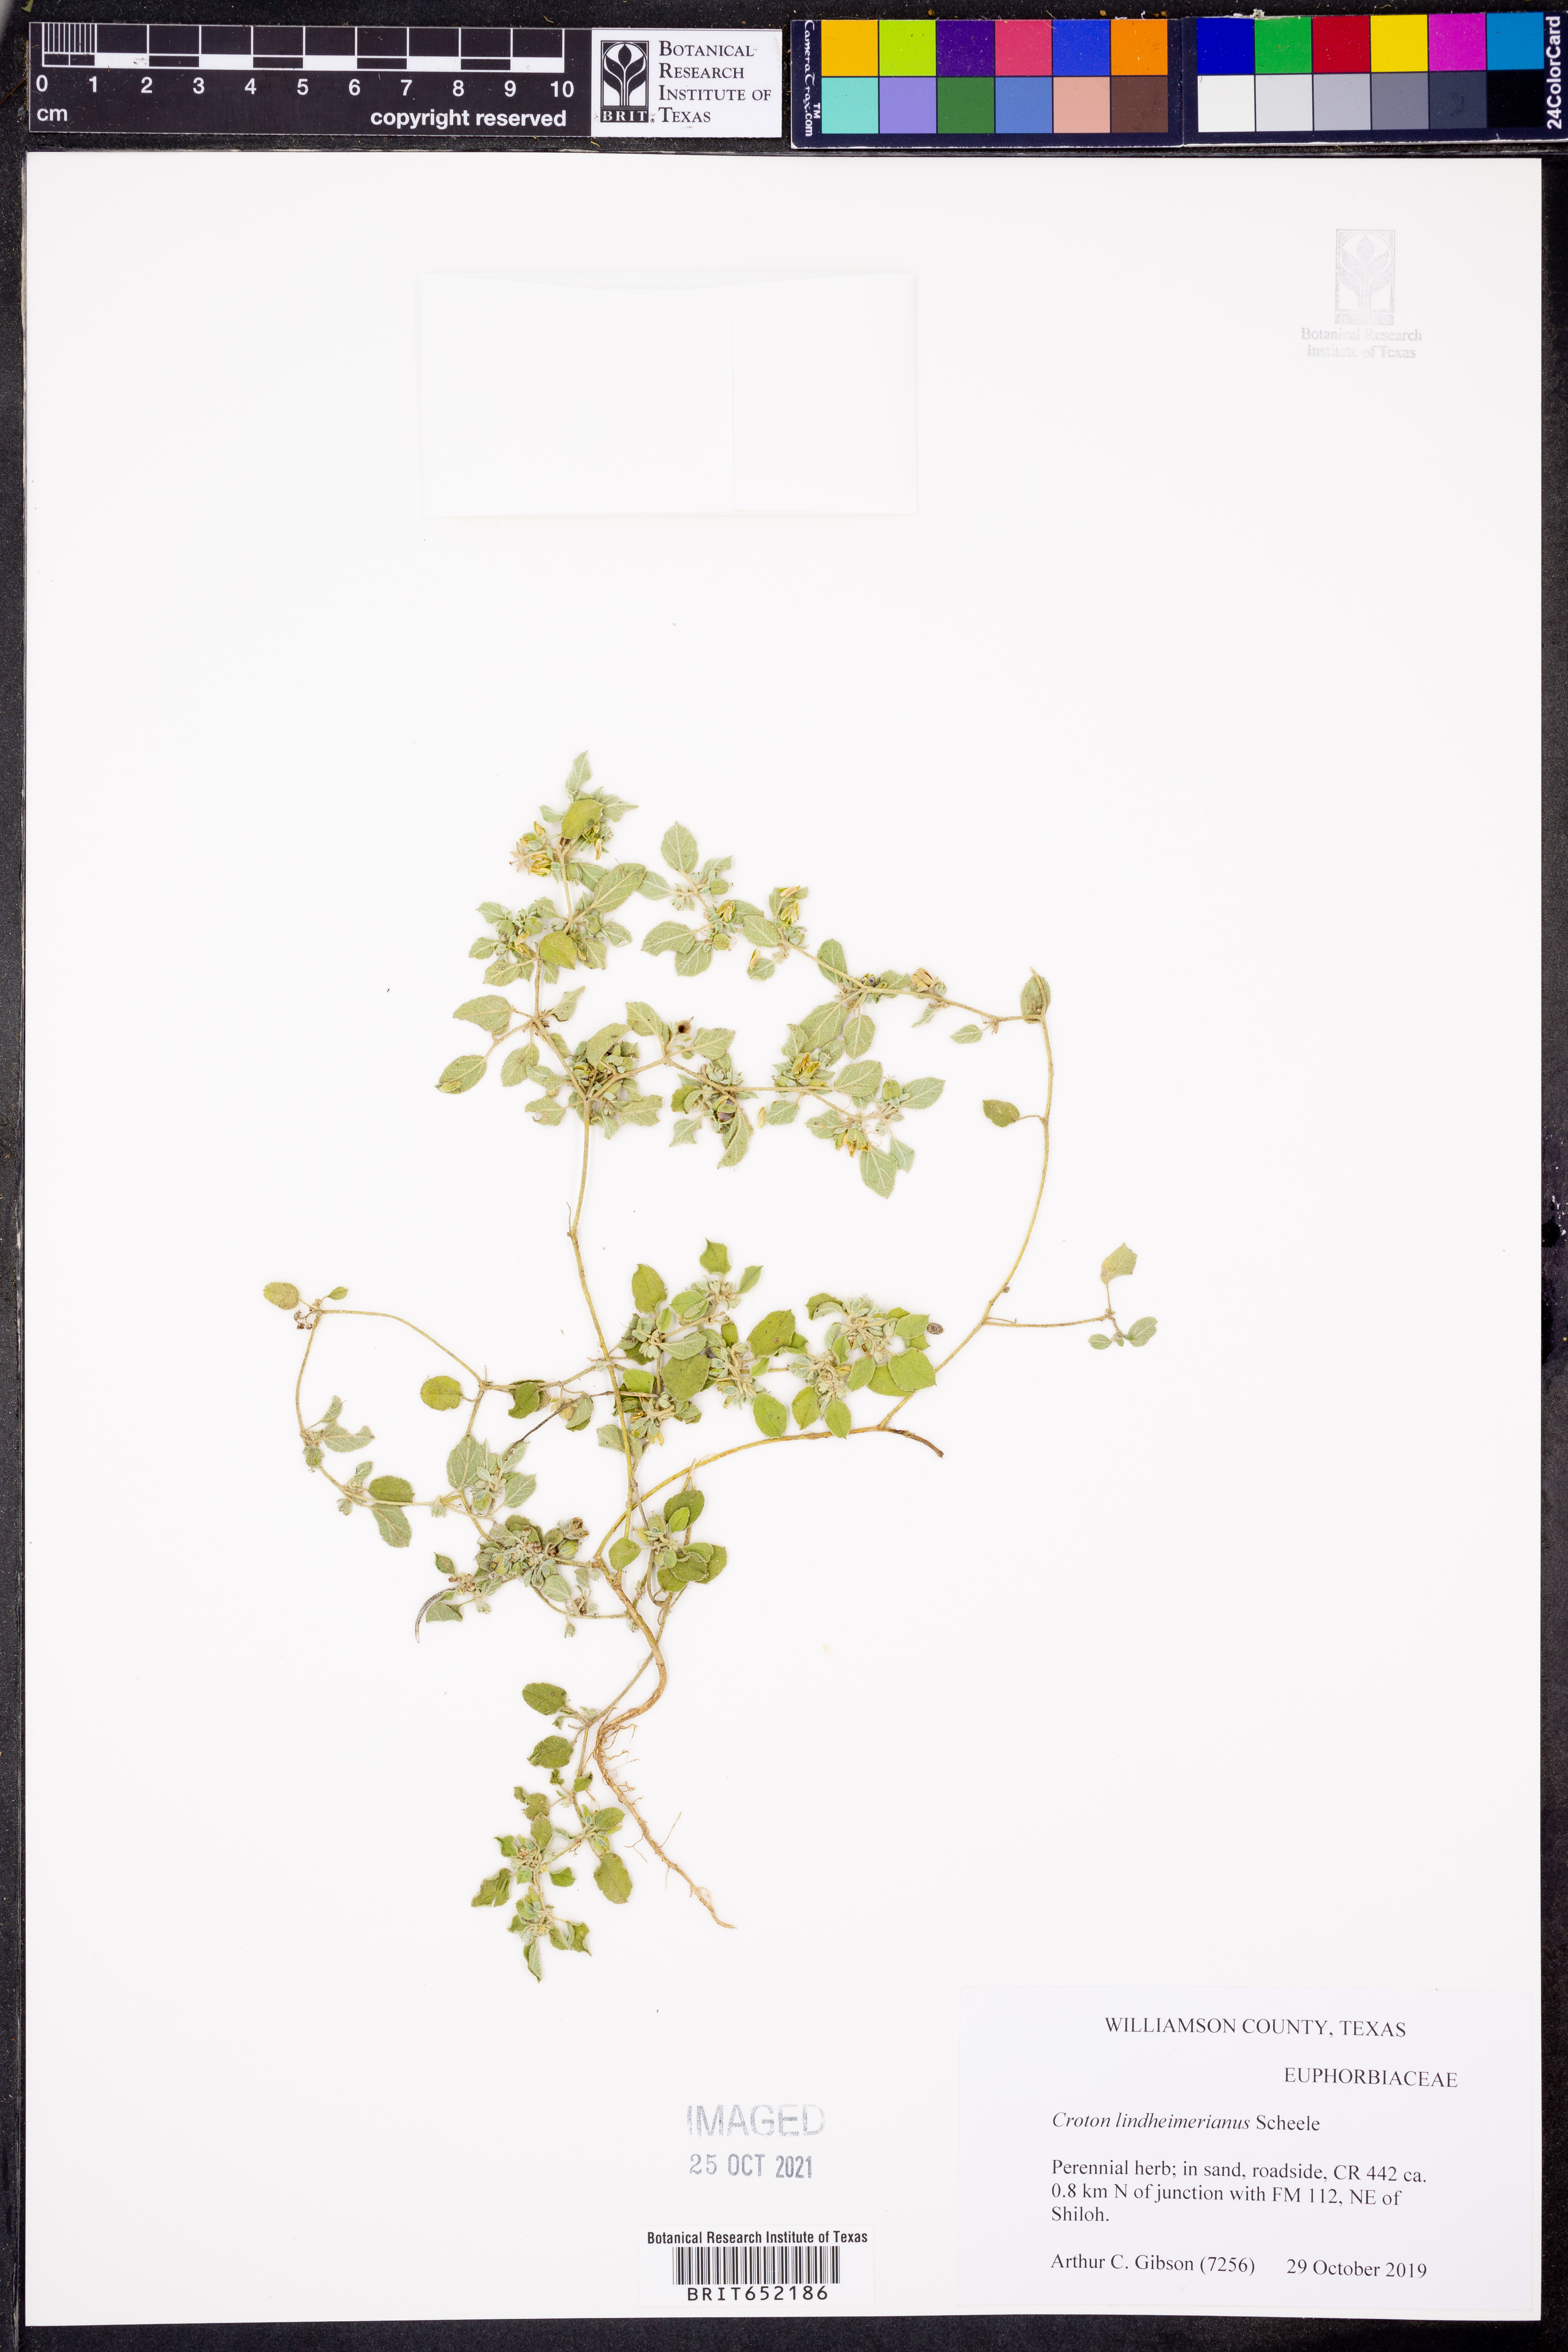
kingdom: Plantae
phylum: Tracheophyta
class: Magnoliopsida
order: Malpighiales
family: Euphorbiaceae
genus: Croton
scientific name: Croton lindheimerianus
